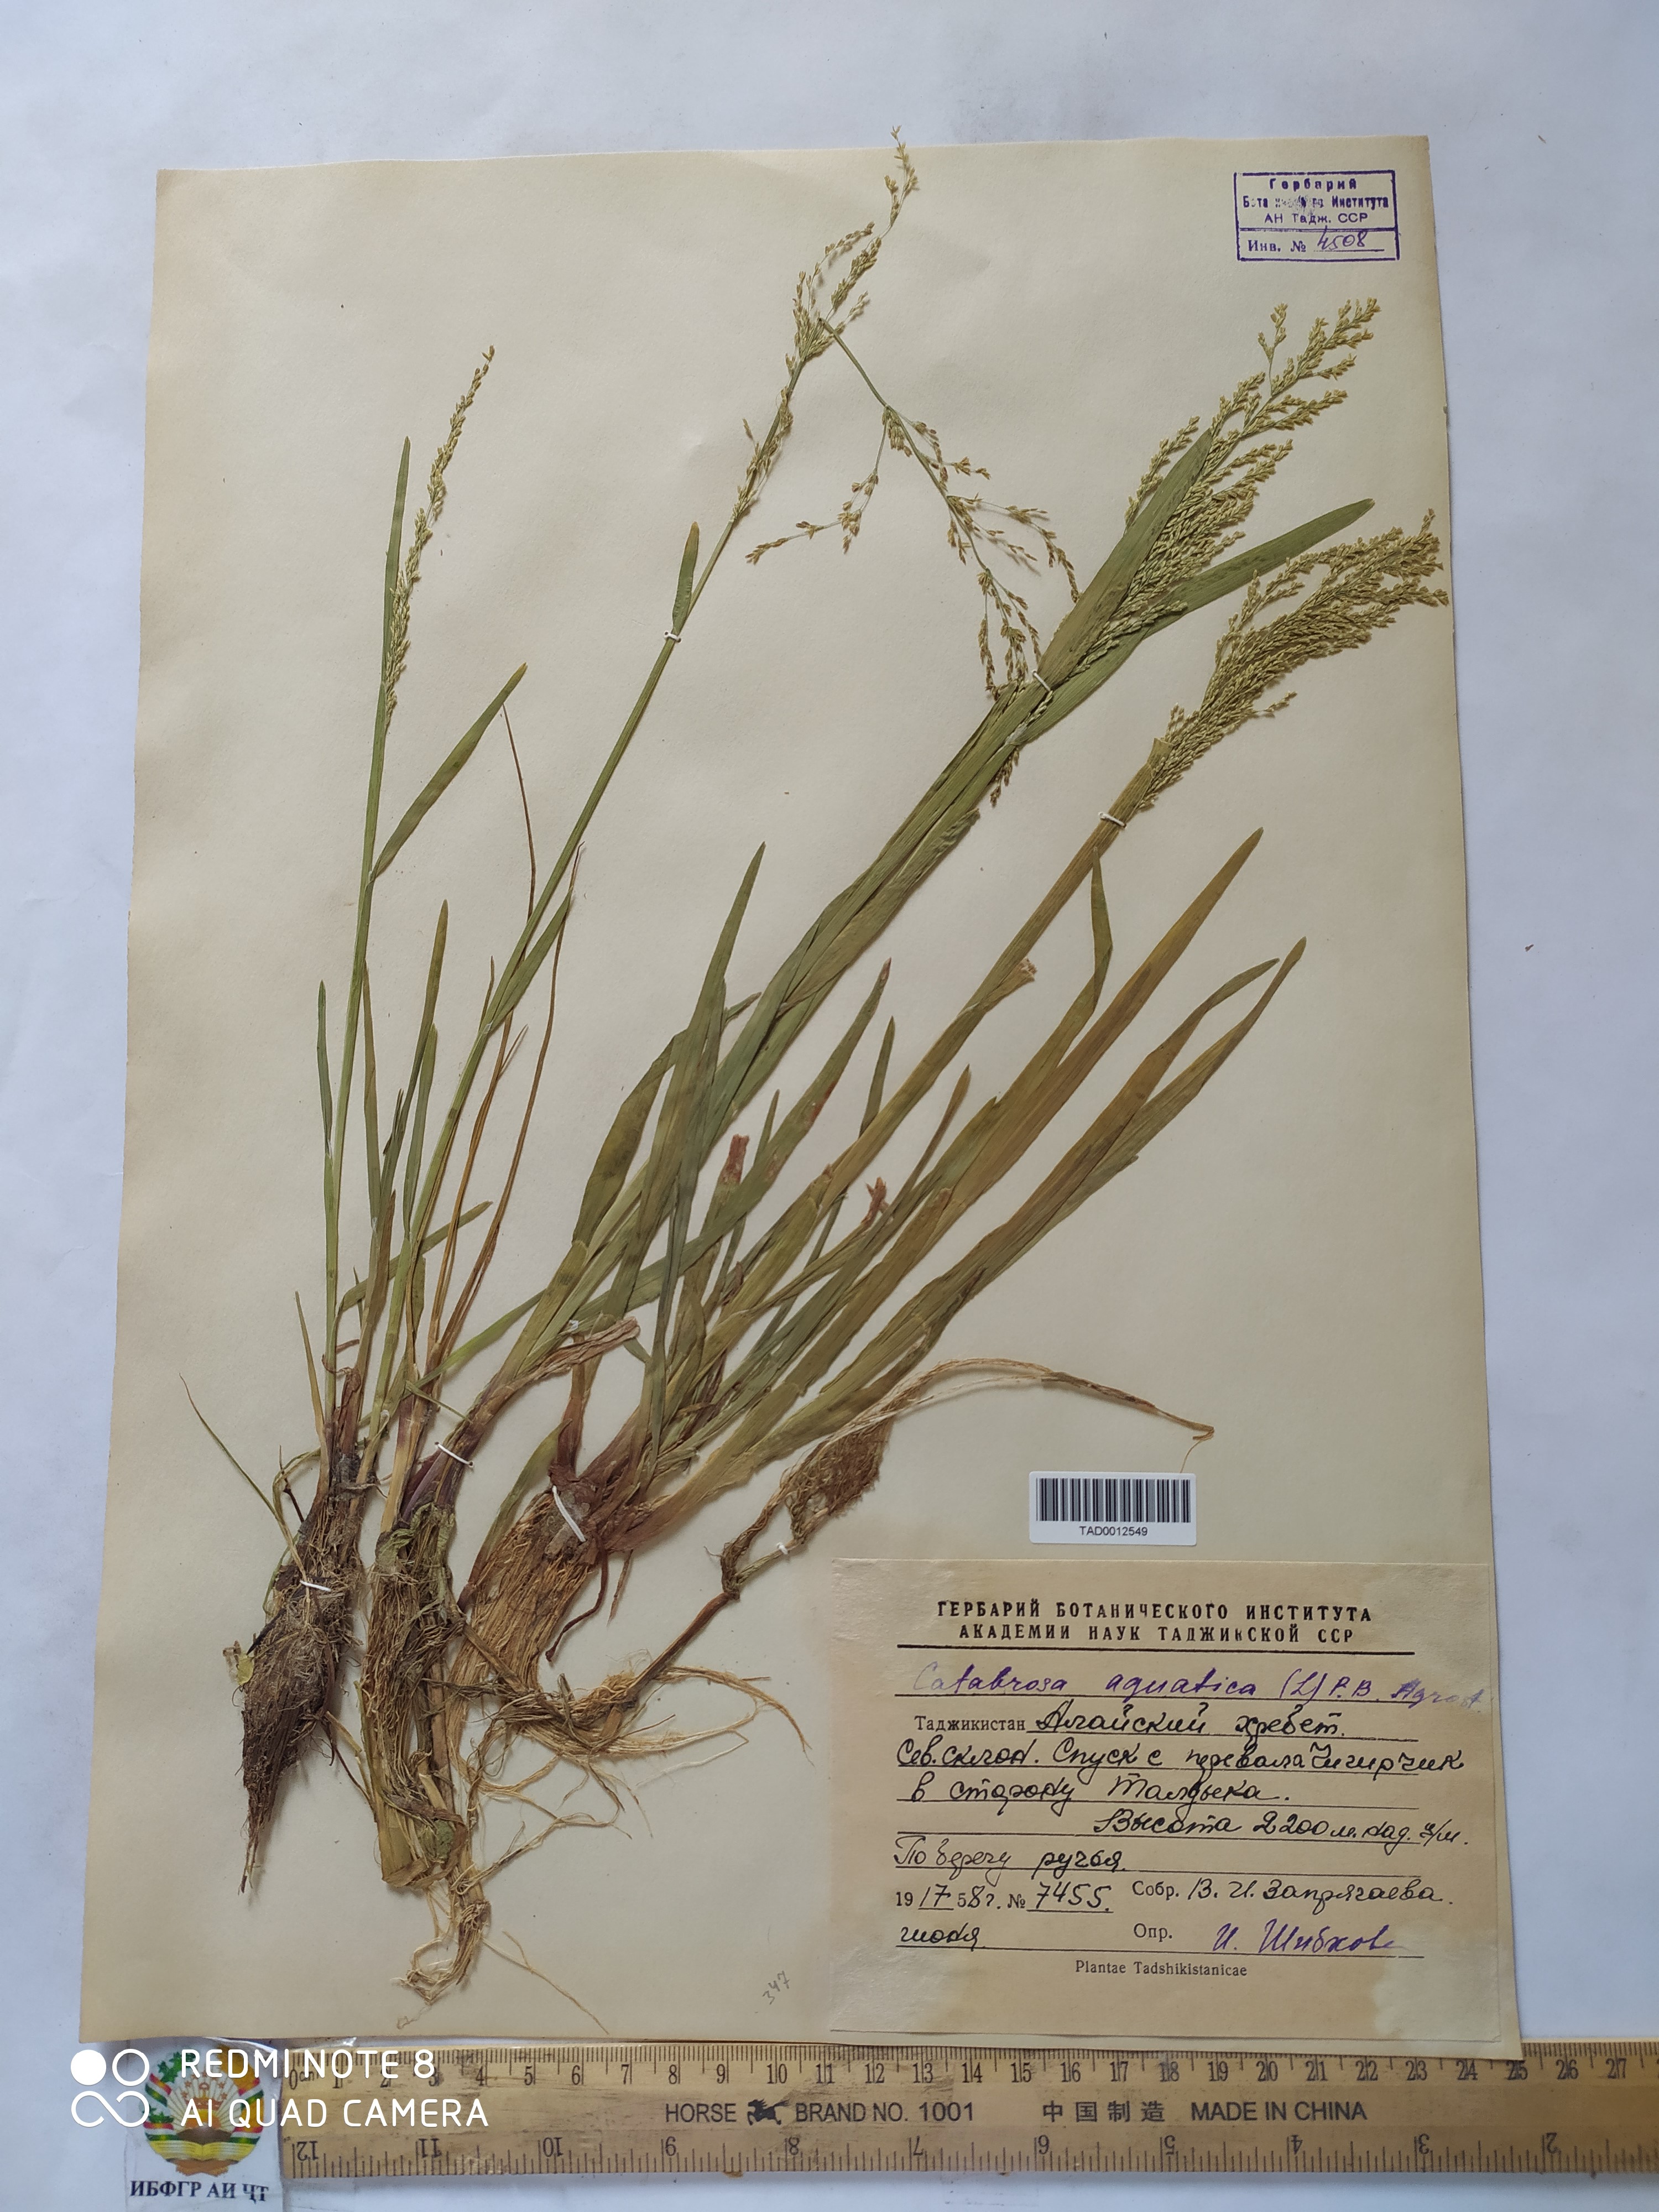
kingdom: Plantae
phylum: Tracheophyta
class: Liliopsida
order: Poales
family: Poaceae
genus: Catabrosa
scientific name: Catabrosa aquatica
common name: Whorl-grass
